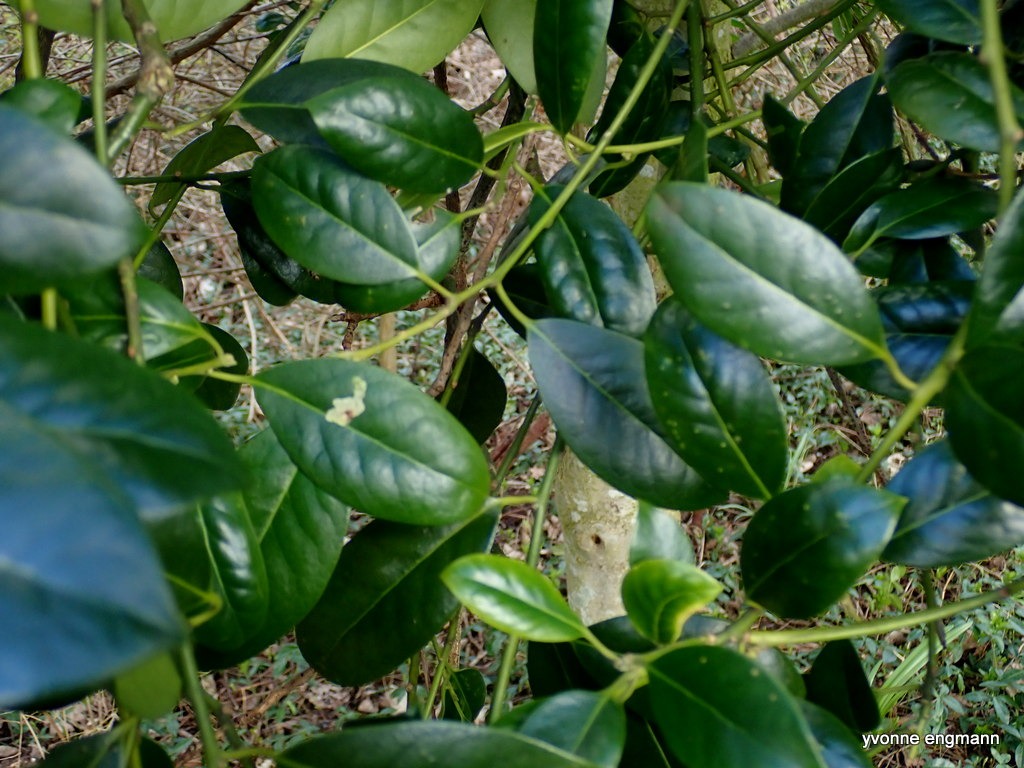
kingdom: Plantae
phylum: Tracheophyta
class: Magnoliopsida
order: Rosales
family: Rosaceae
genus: Prunus
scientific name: Prunus laurocerasus
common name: Laurbærkirsebær
